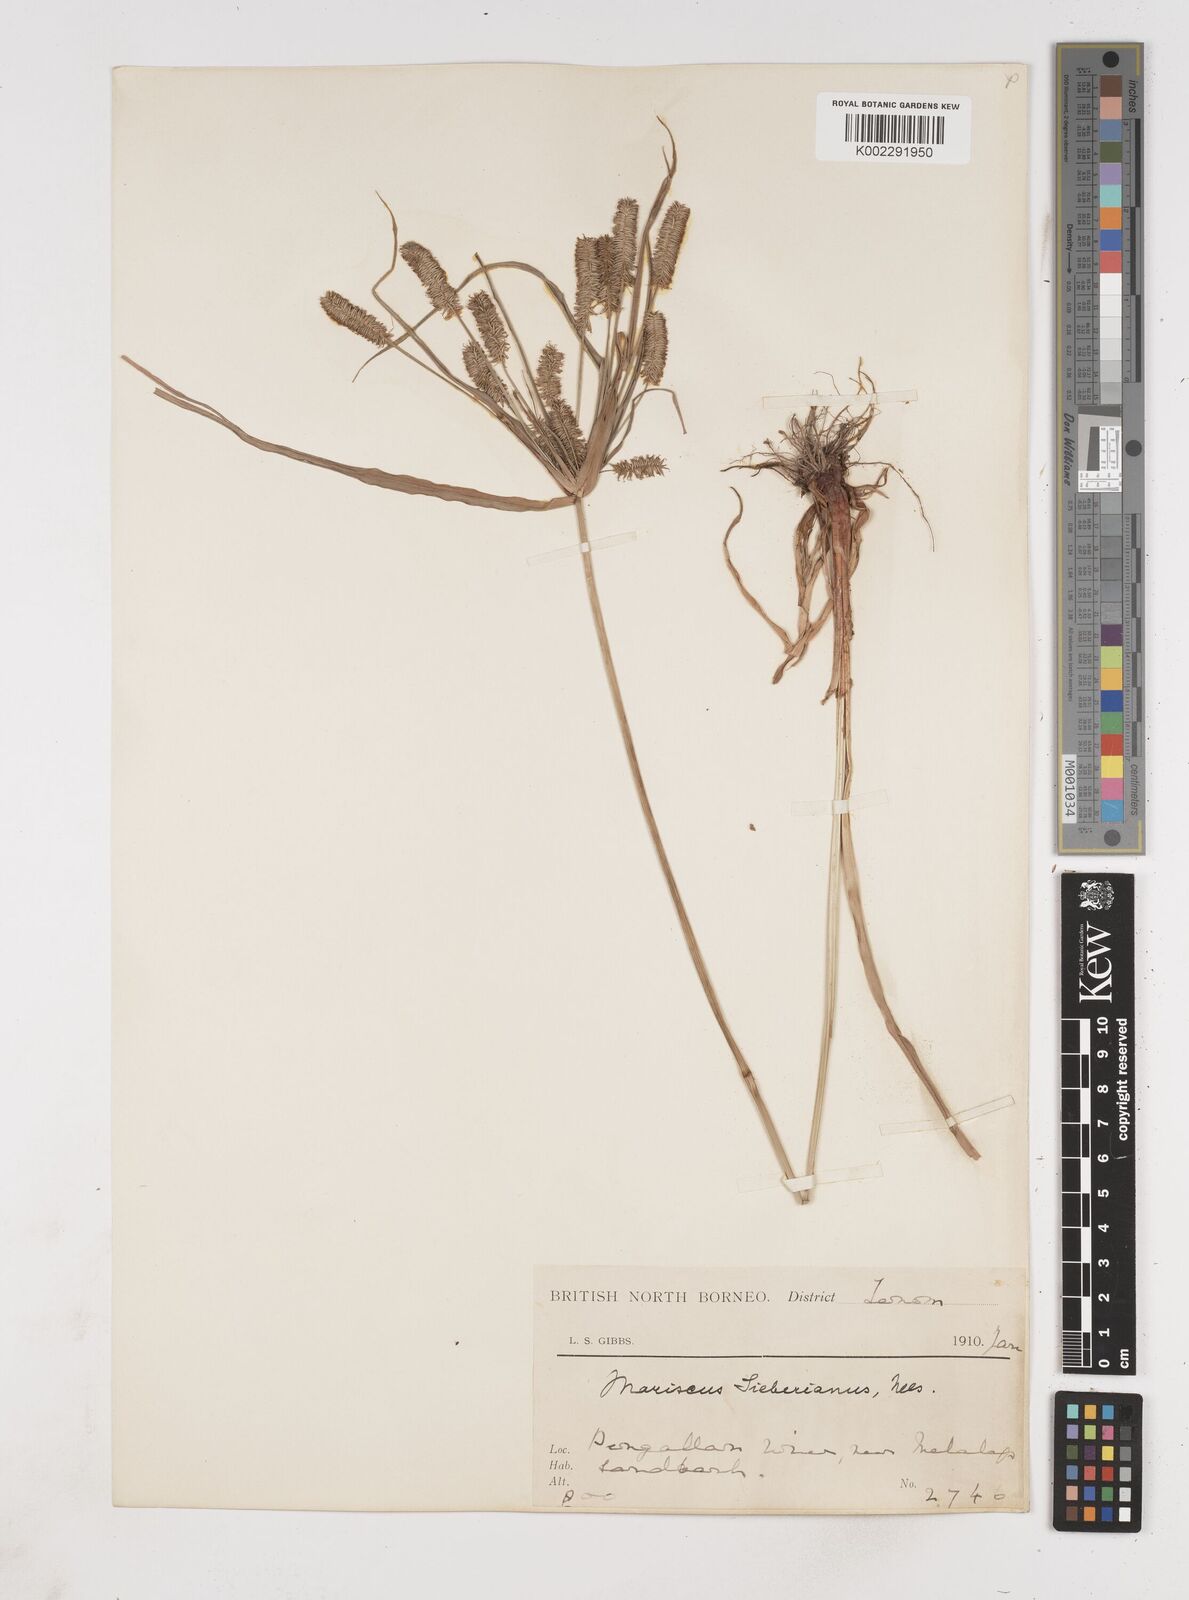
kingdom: Plantae
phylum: Tracheophyta
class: Liliopsida
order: Poales
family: Cyperaceae
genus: Cyperus
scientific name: Cyperus cyperoides
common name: Pacific island flat sedge
